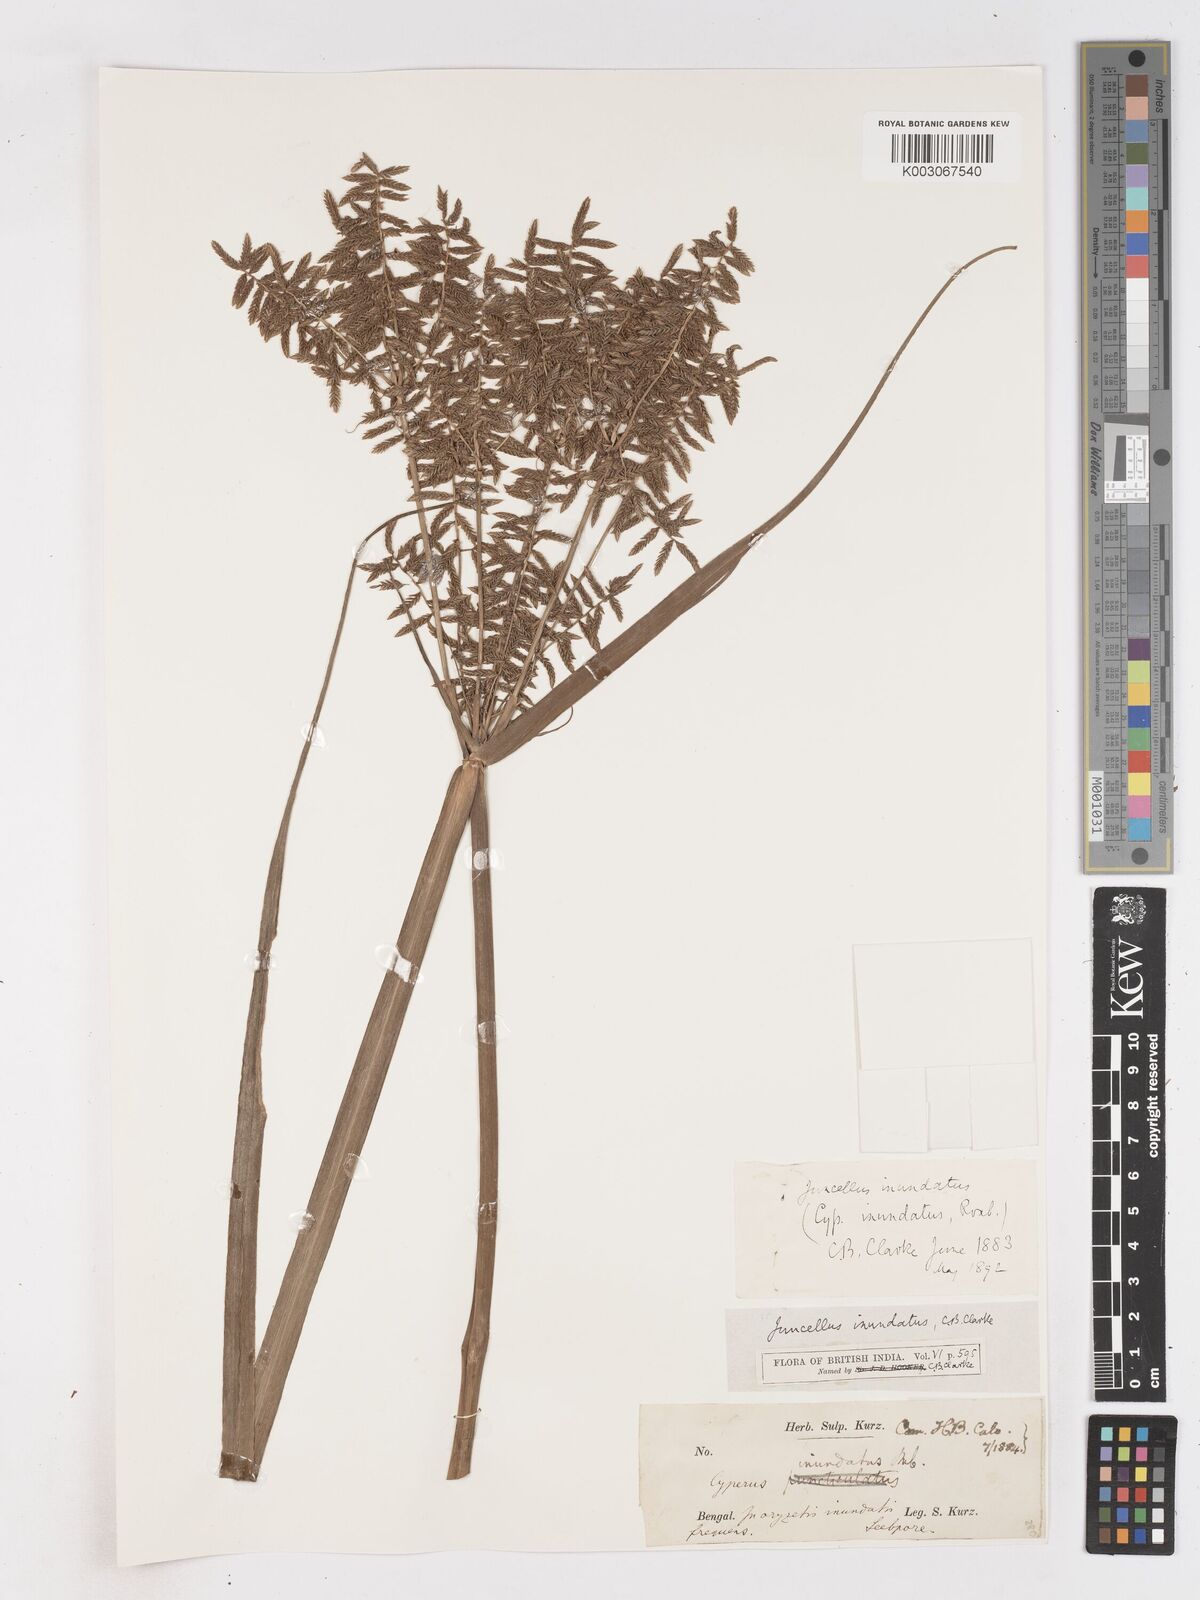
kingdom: Plantae
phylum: Tracheophyta
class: Liliopsida
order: Poales
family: Cyperaceae
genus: Cyperus
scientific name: Cyperus serotinus
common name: Tidalmarsh flatsedge
